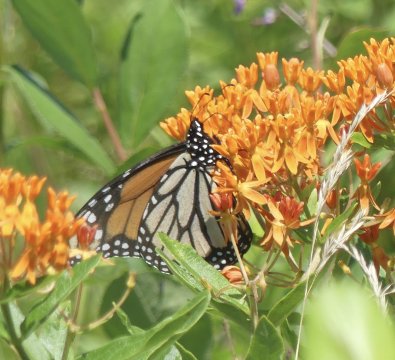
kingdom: Animalia
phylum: Arthropoda
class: Insecta
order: Lepidoptera
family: Nymphalidae
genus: Danaus
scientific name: Danaus plexippus
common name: Monarch
